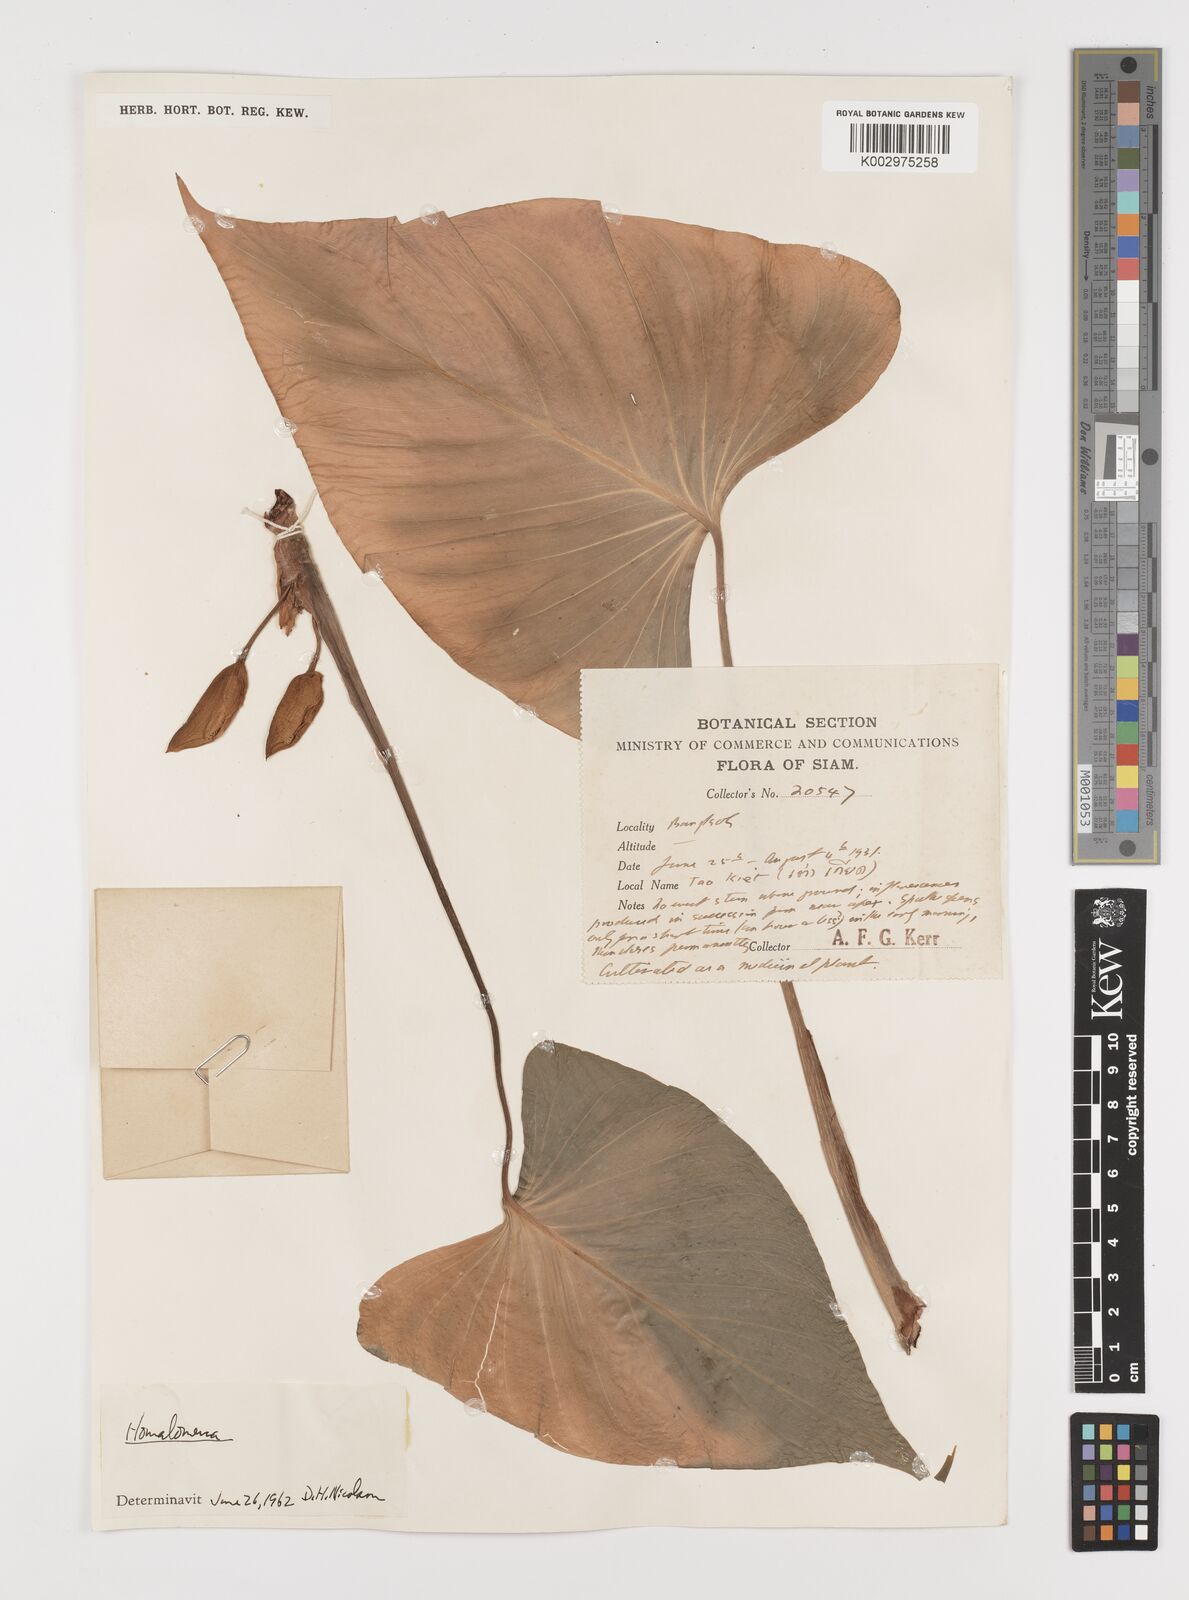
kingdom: Plantae
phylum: Tracheophyta
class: Liliopsida
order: Alismatales
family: Araceae
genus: Homalomena
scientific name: Homalomena
